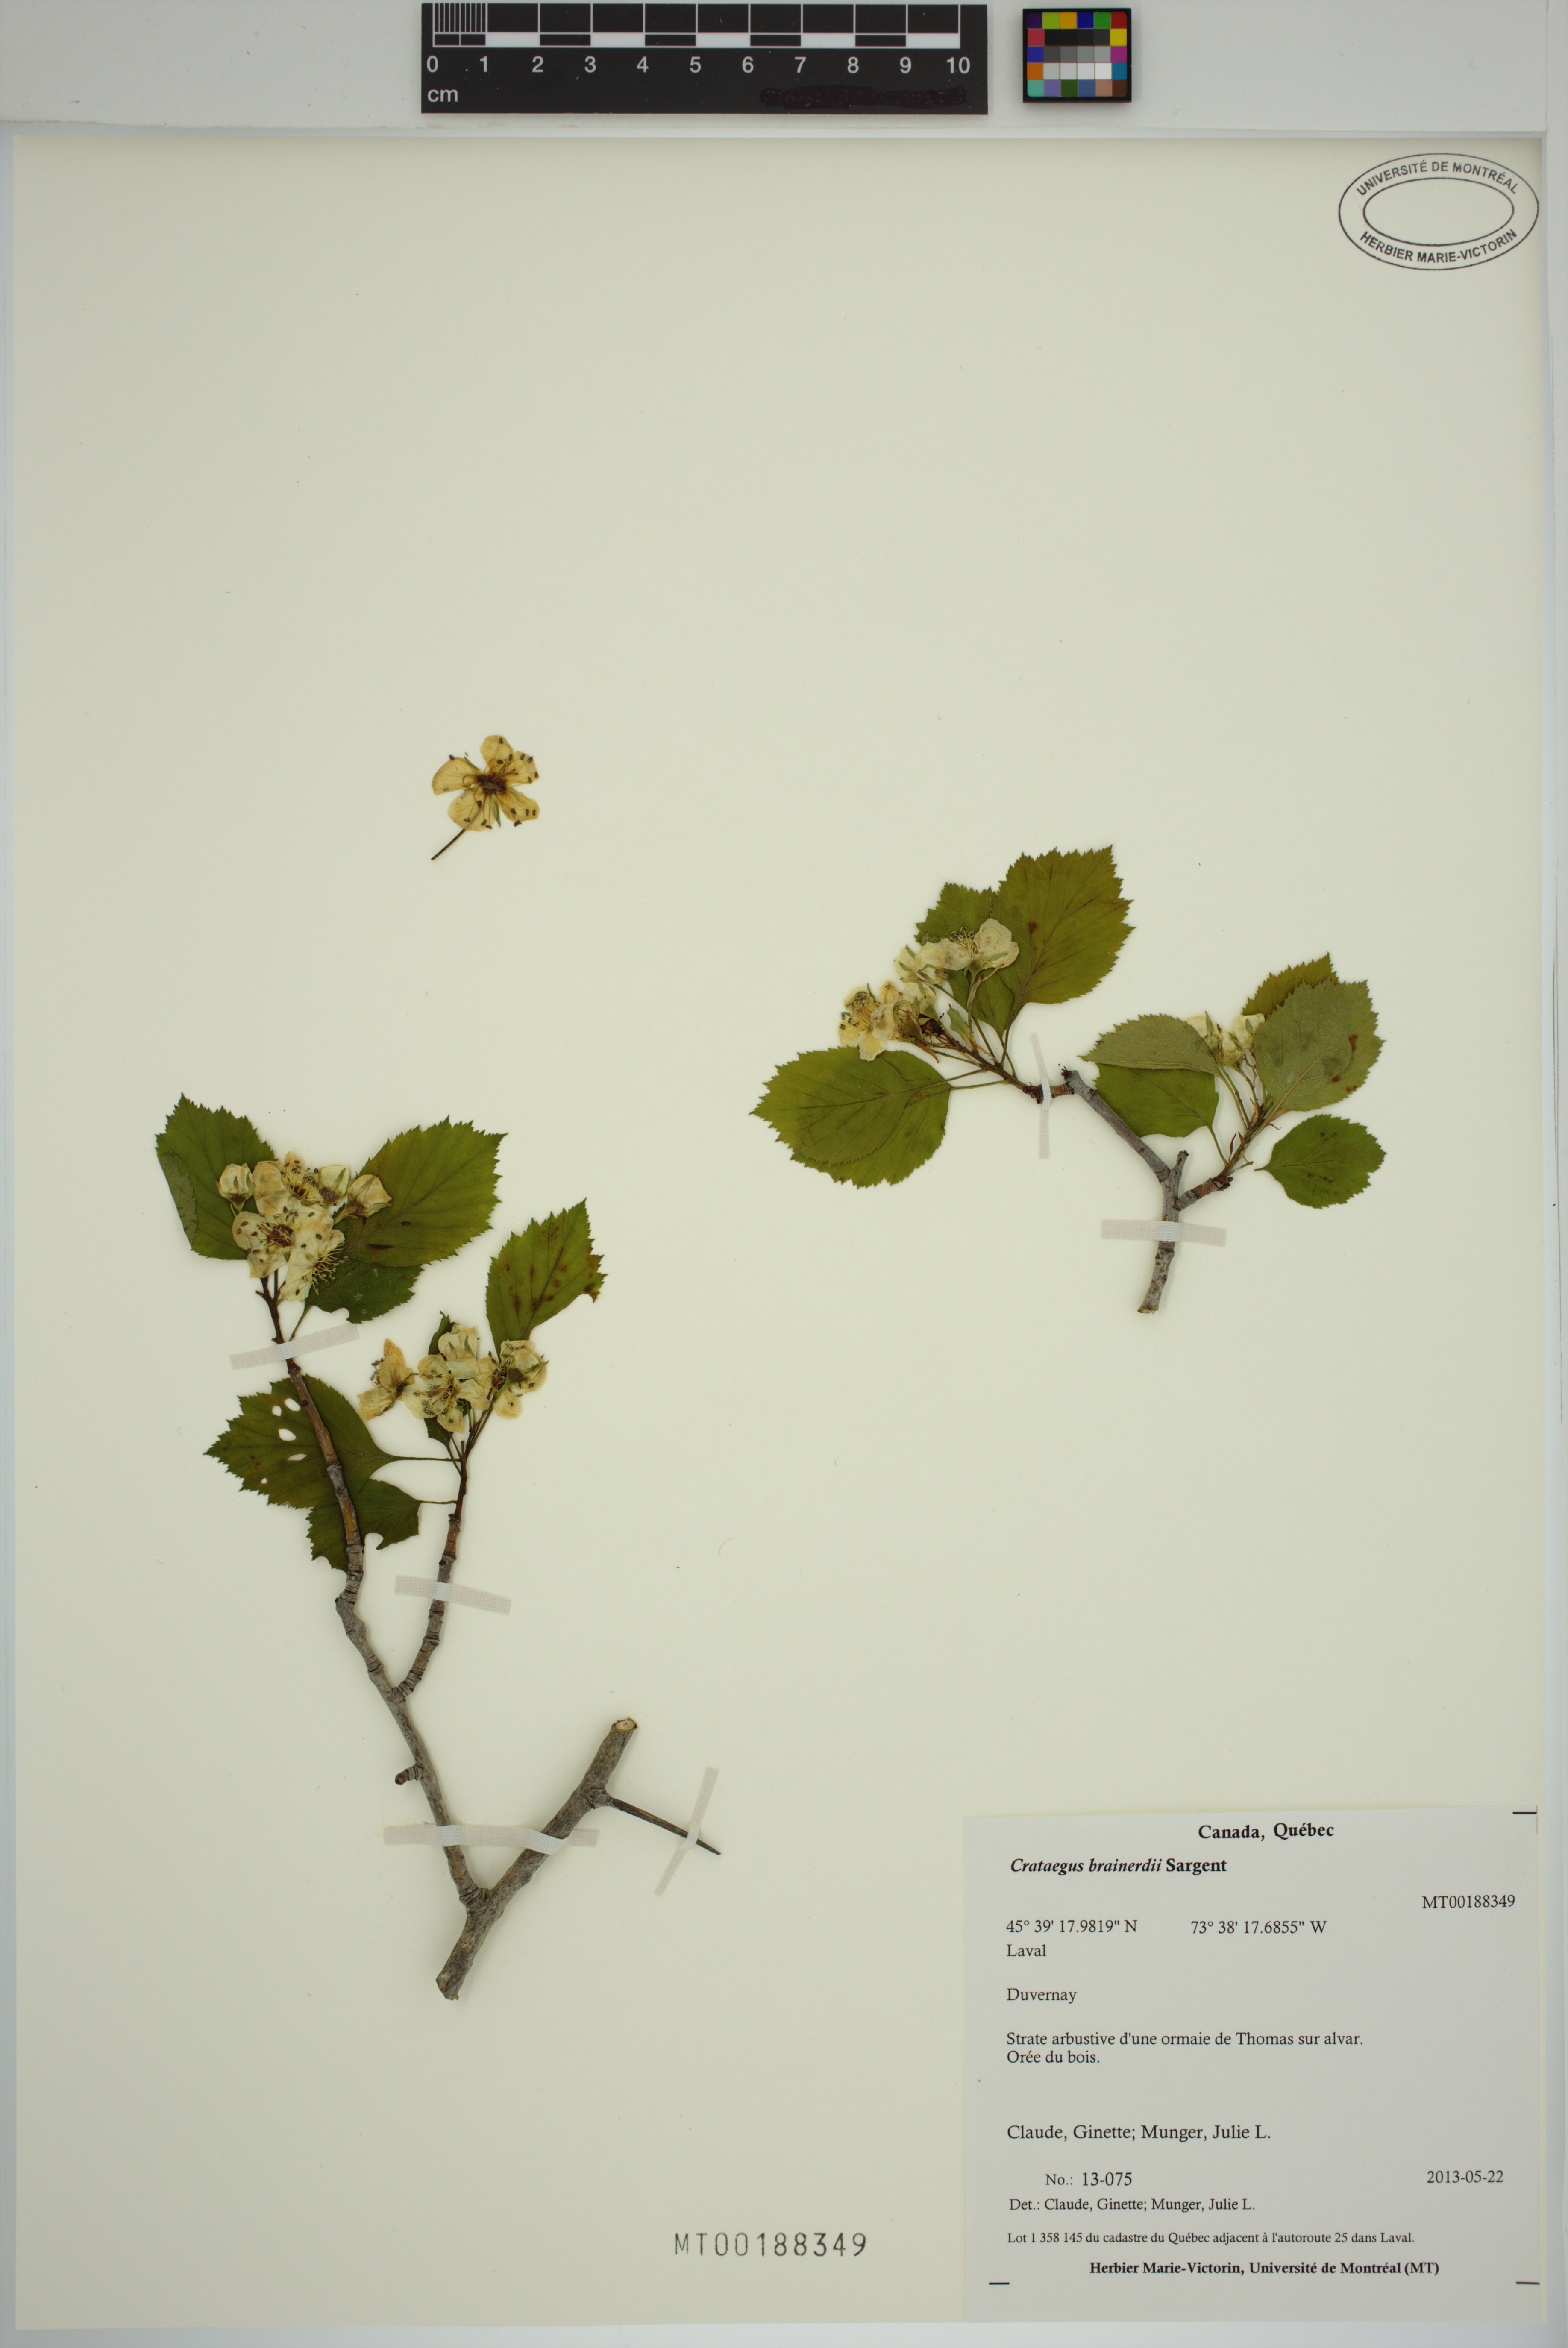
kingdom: Plantae
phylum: Tracheophyta
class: Magnoliopsida
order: Rosales
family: Rosaceae
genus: Crataegus
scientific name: Crataegus suborbiculata
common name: Caughnawaga hawthorn
